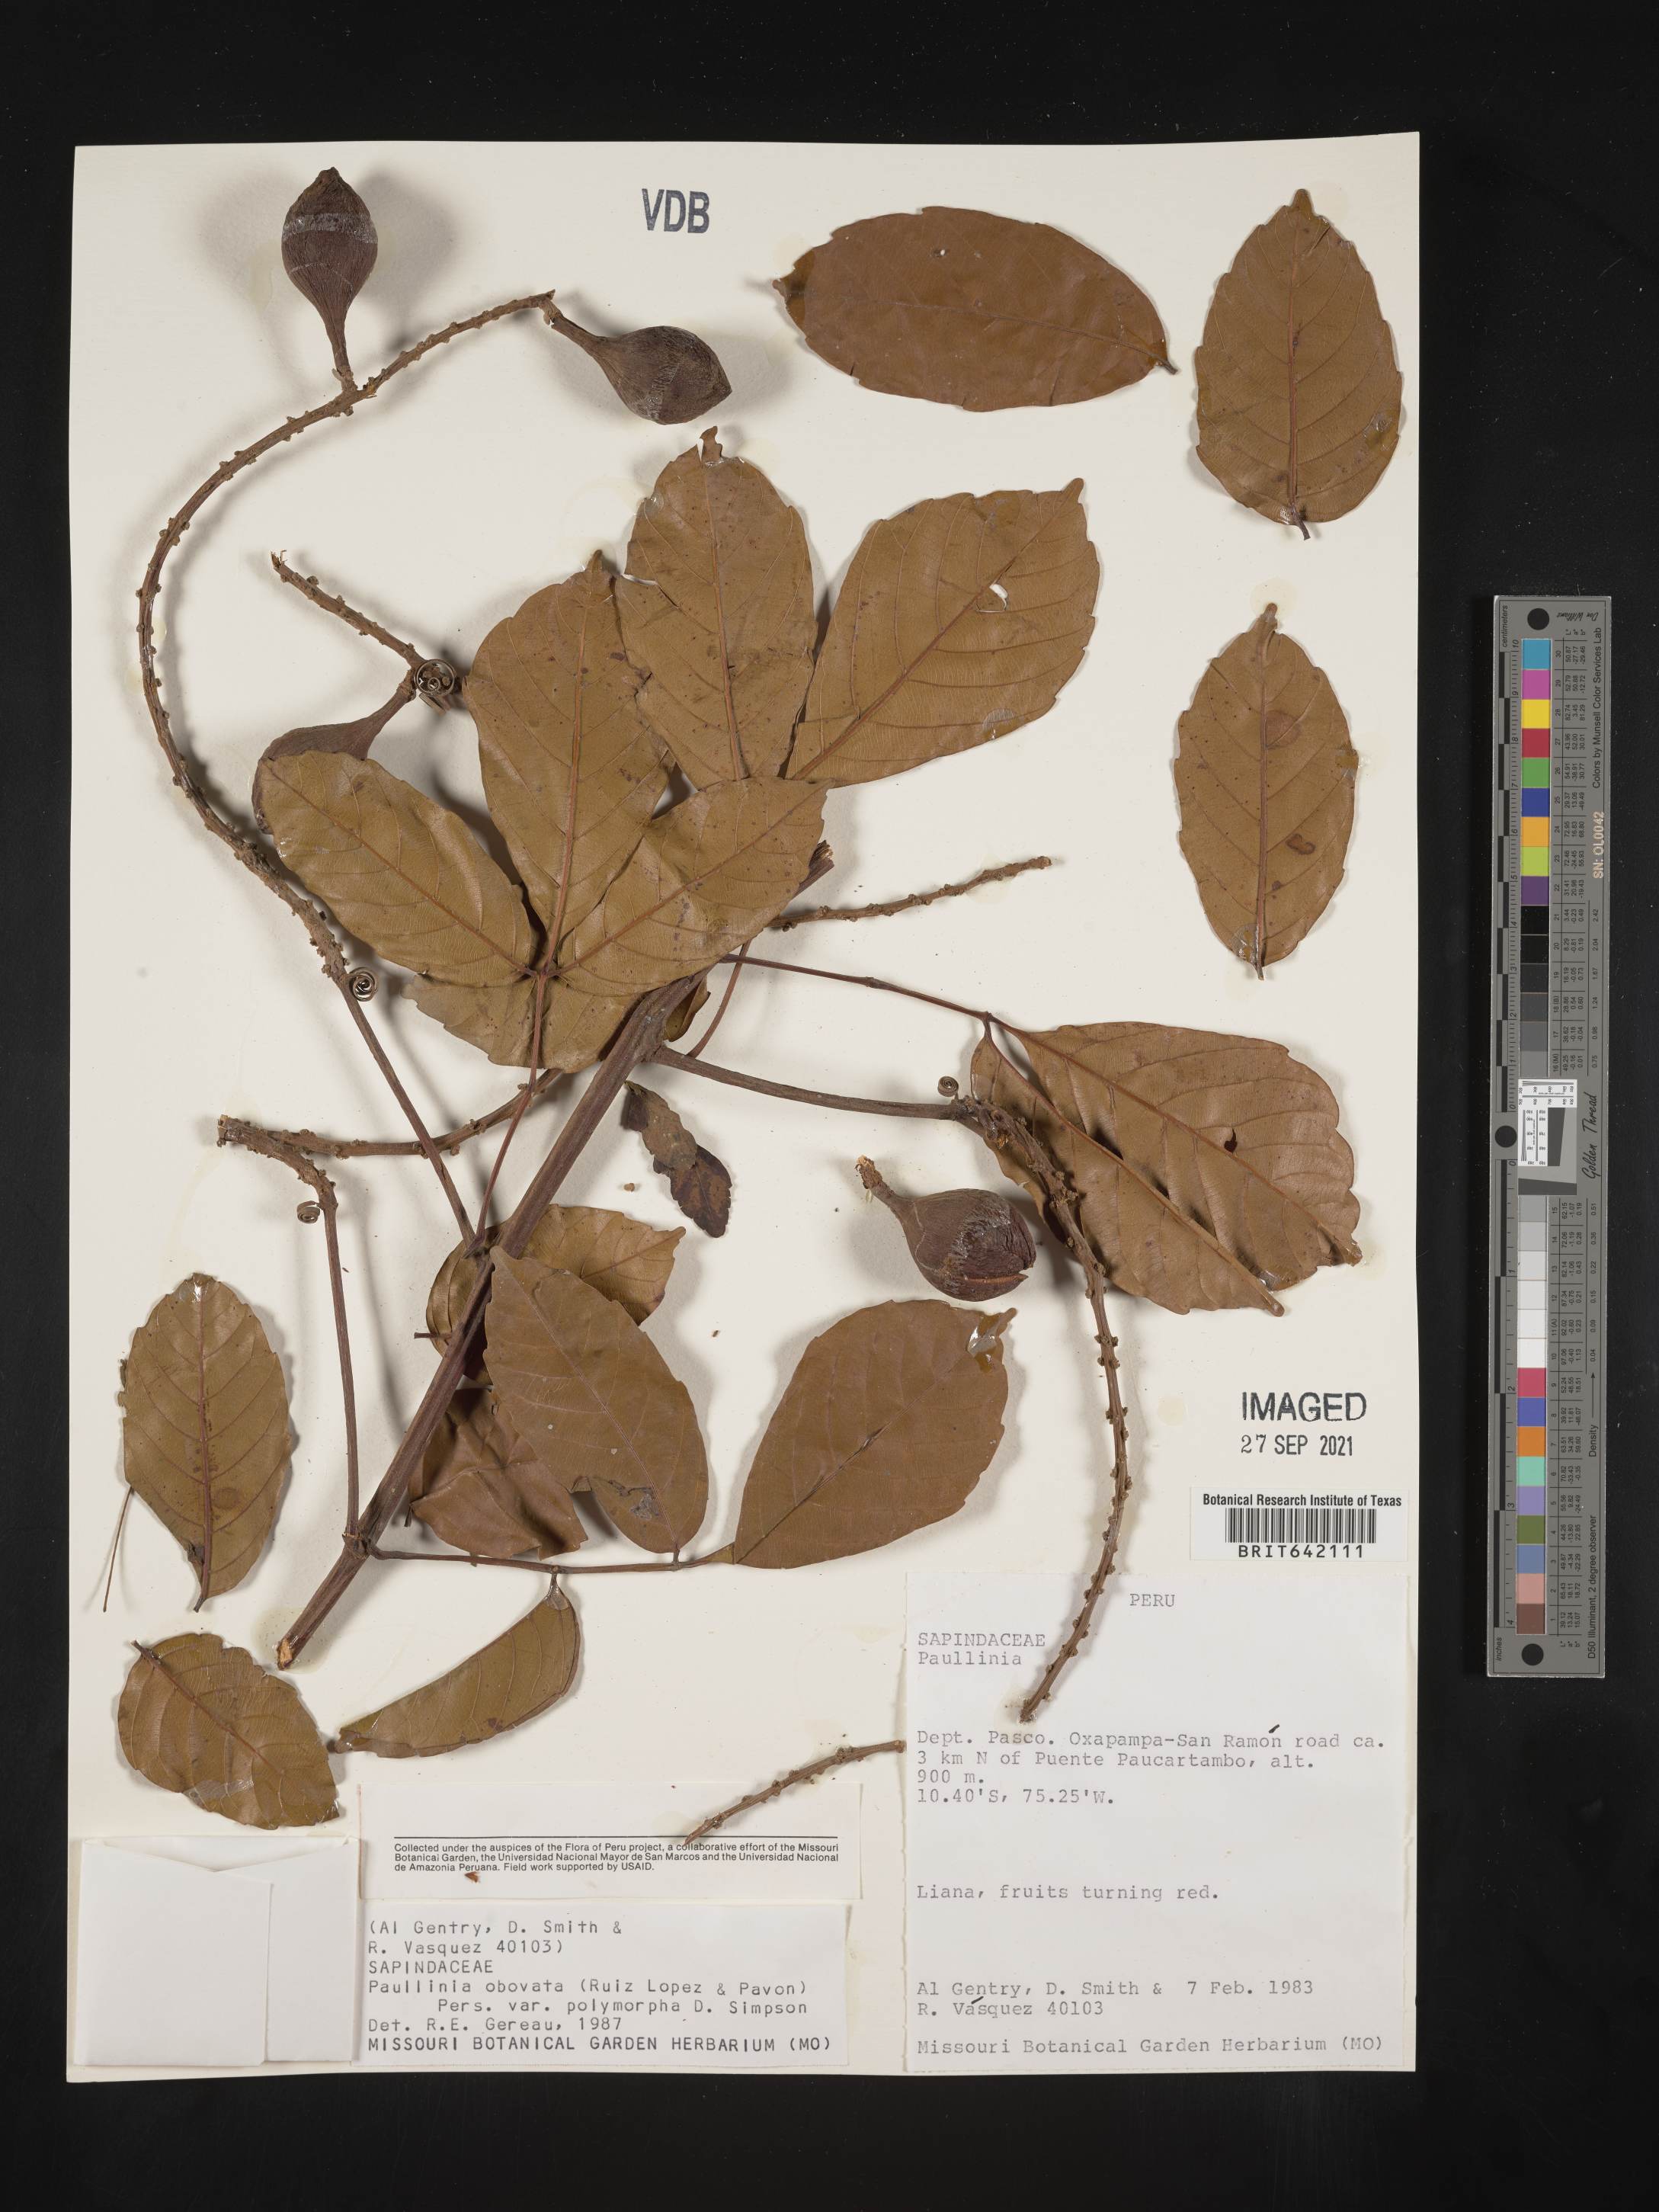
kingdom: Plantae
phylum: Tracheophyta
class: Magnoliopsida
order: Sapindales
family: Sapindaceae
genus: Paullinia
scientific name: Paullinia
